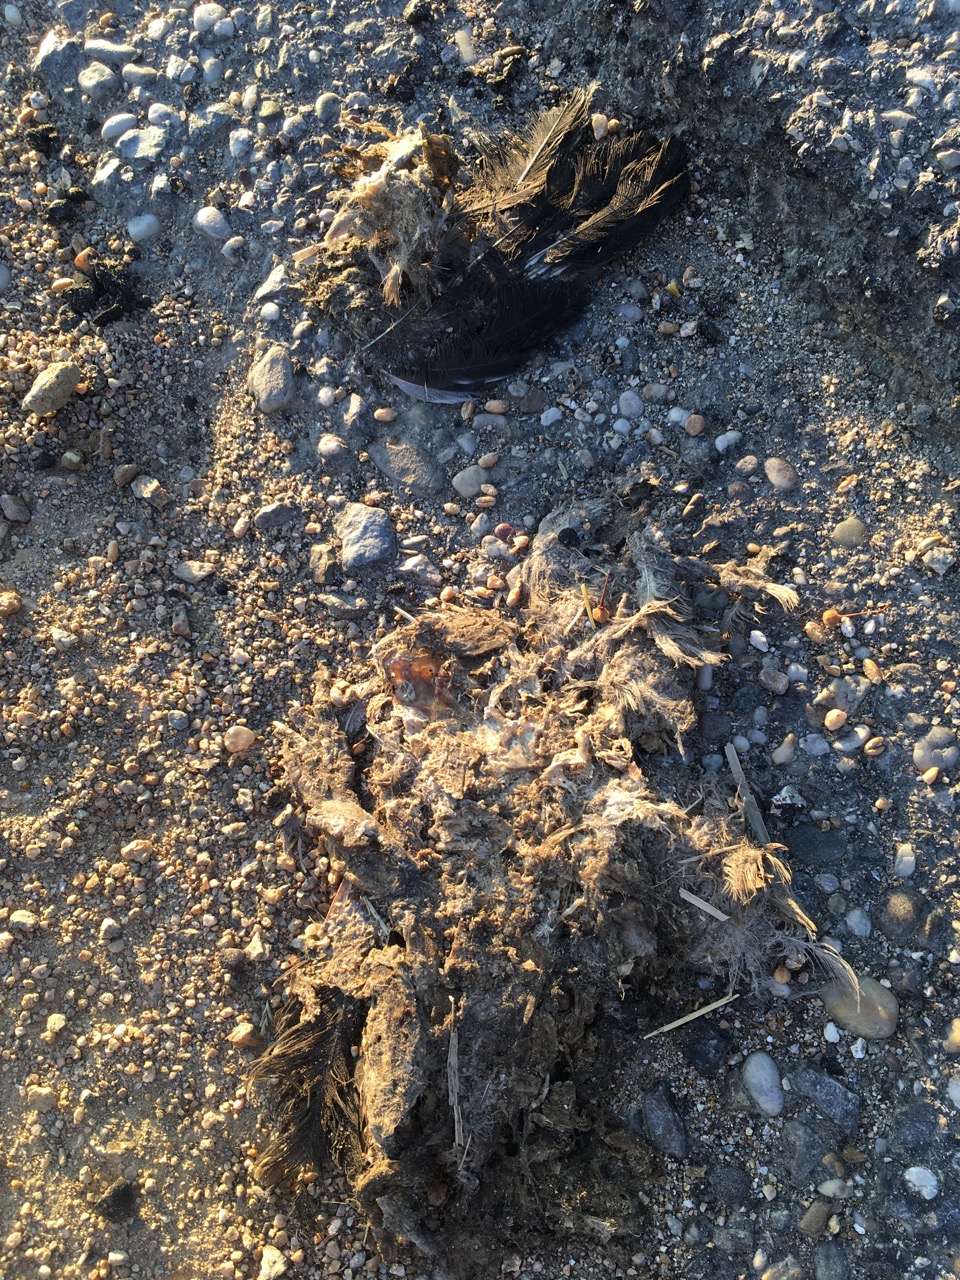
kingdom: Animalia
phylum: Chordata
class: Aves
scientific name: Aves
